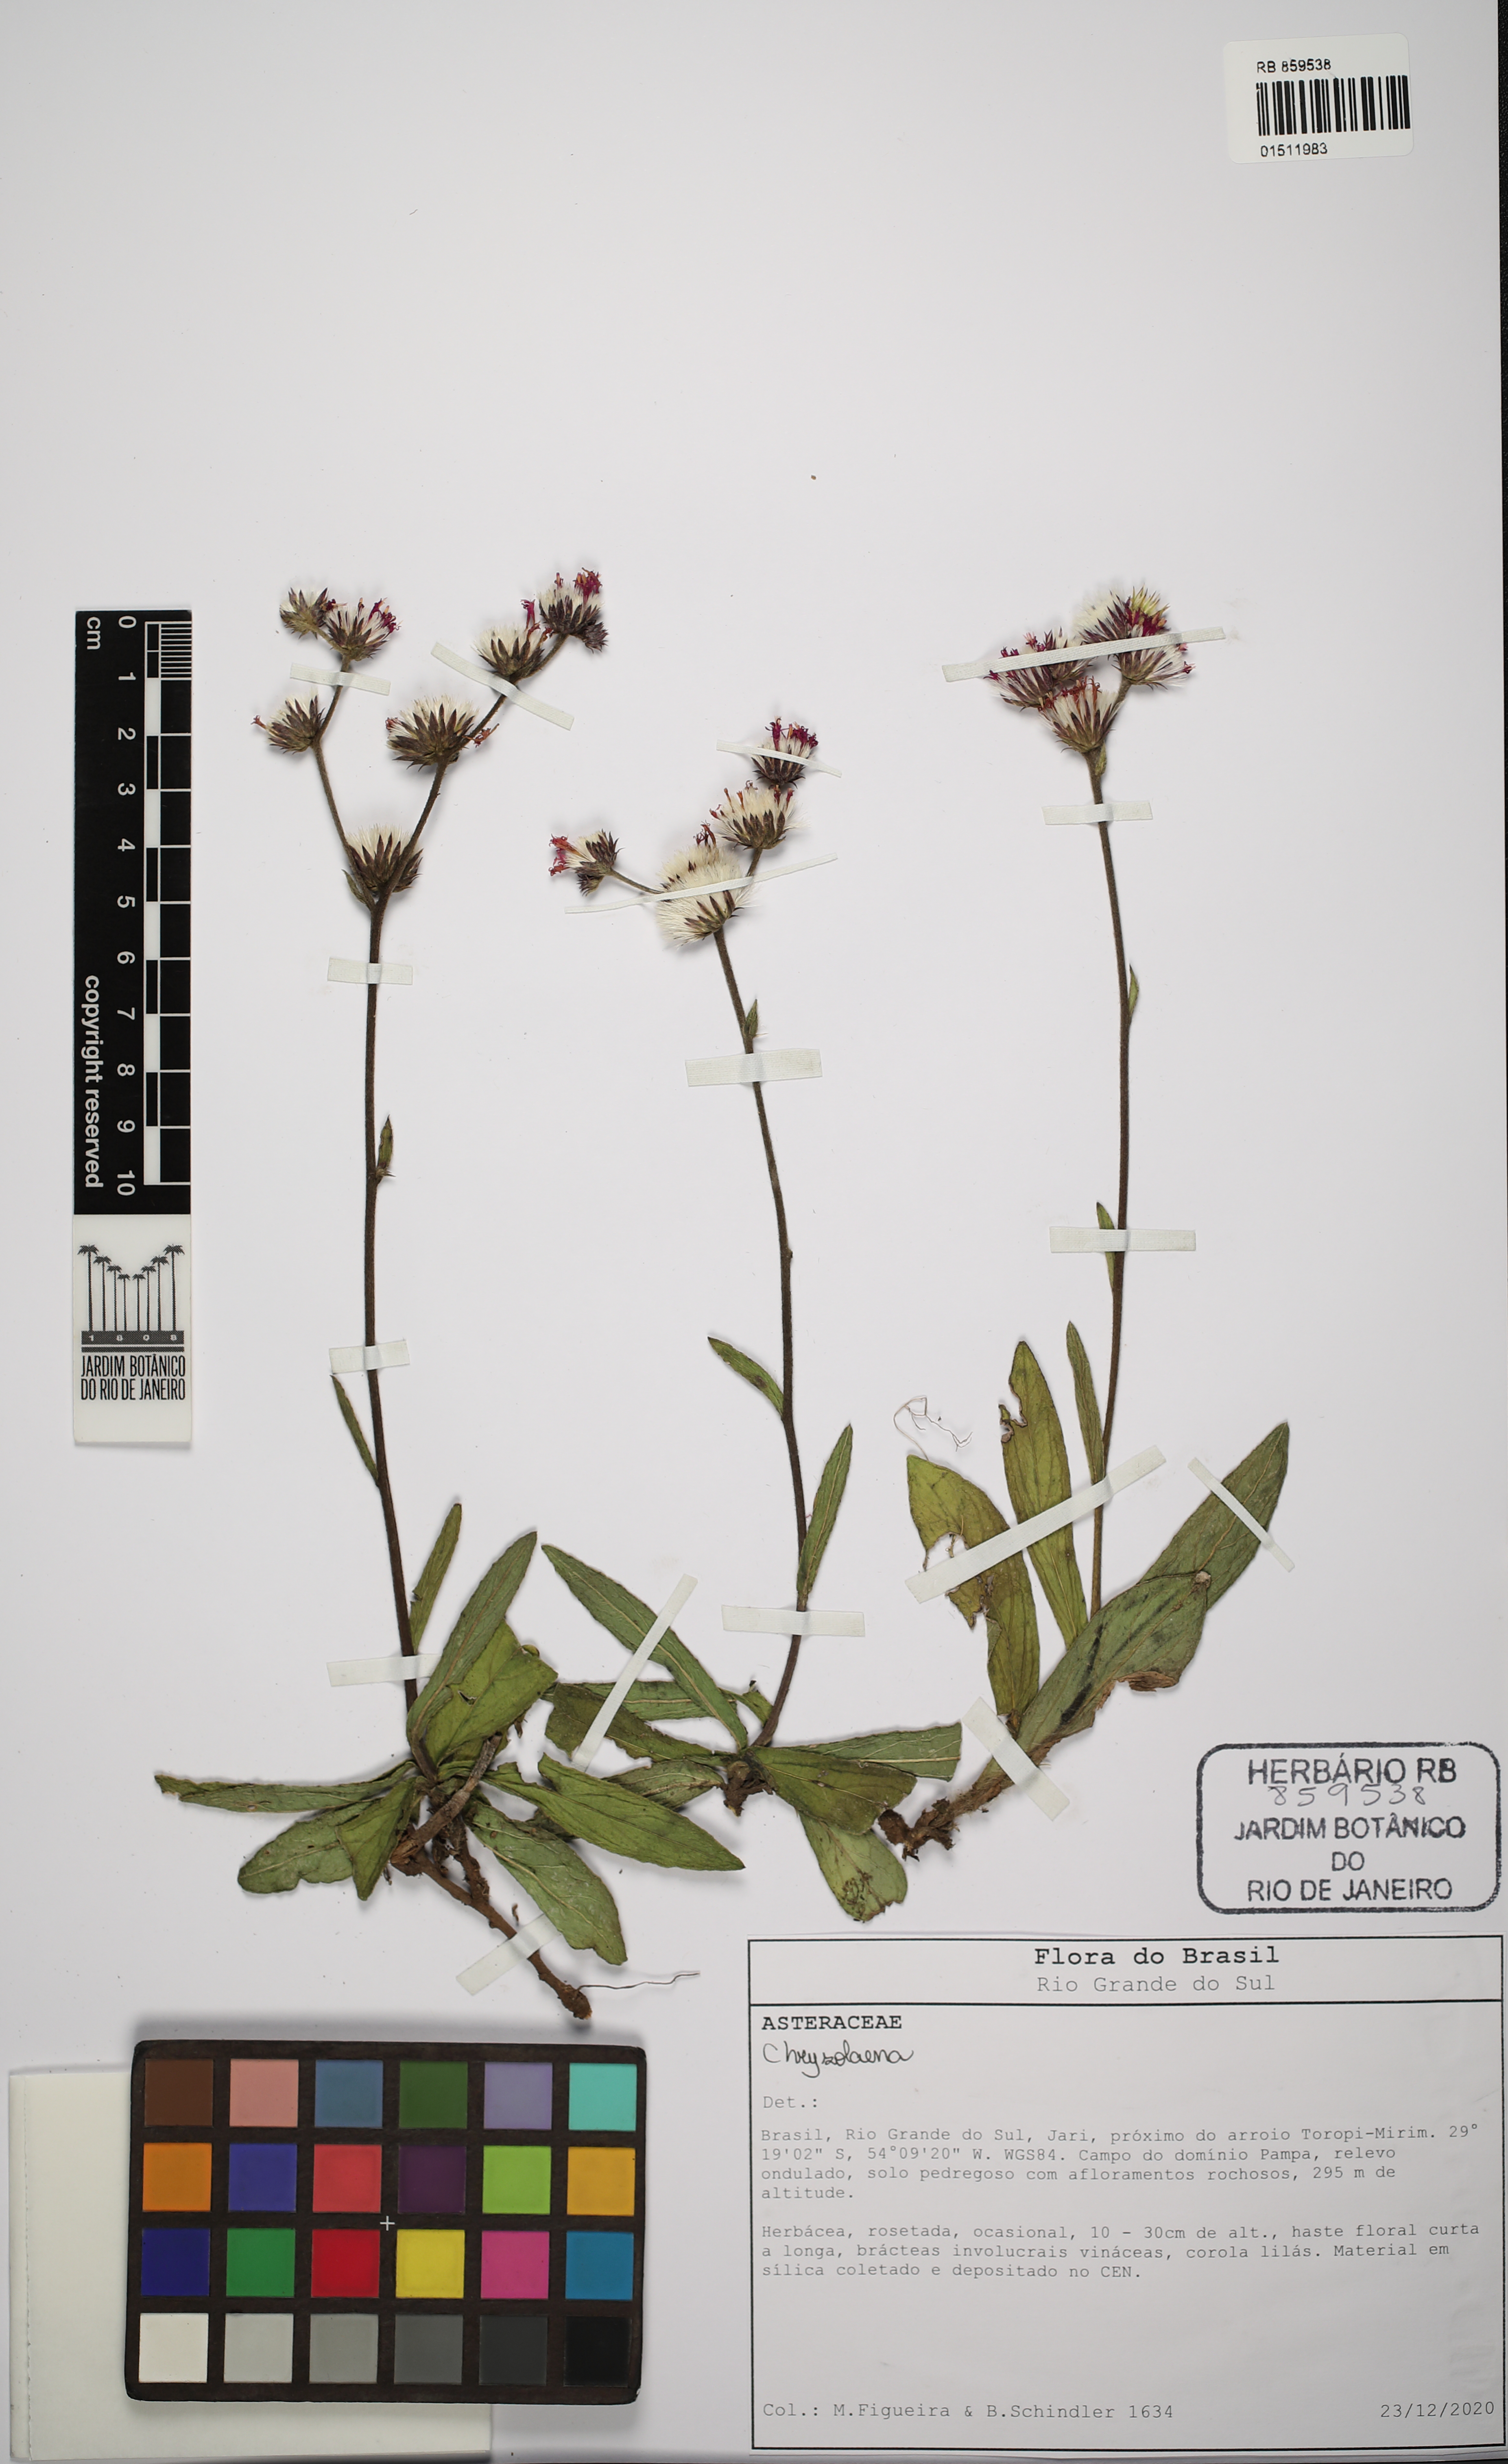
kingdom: Plantae
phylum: Tracheophyta
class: Magnoliopsida
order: Asterales
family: Asteraceae
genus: Chrysolaena
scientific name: Chrysolaena
